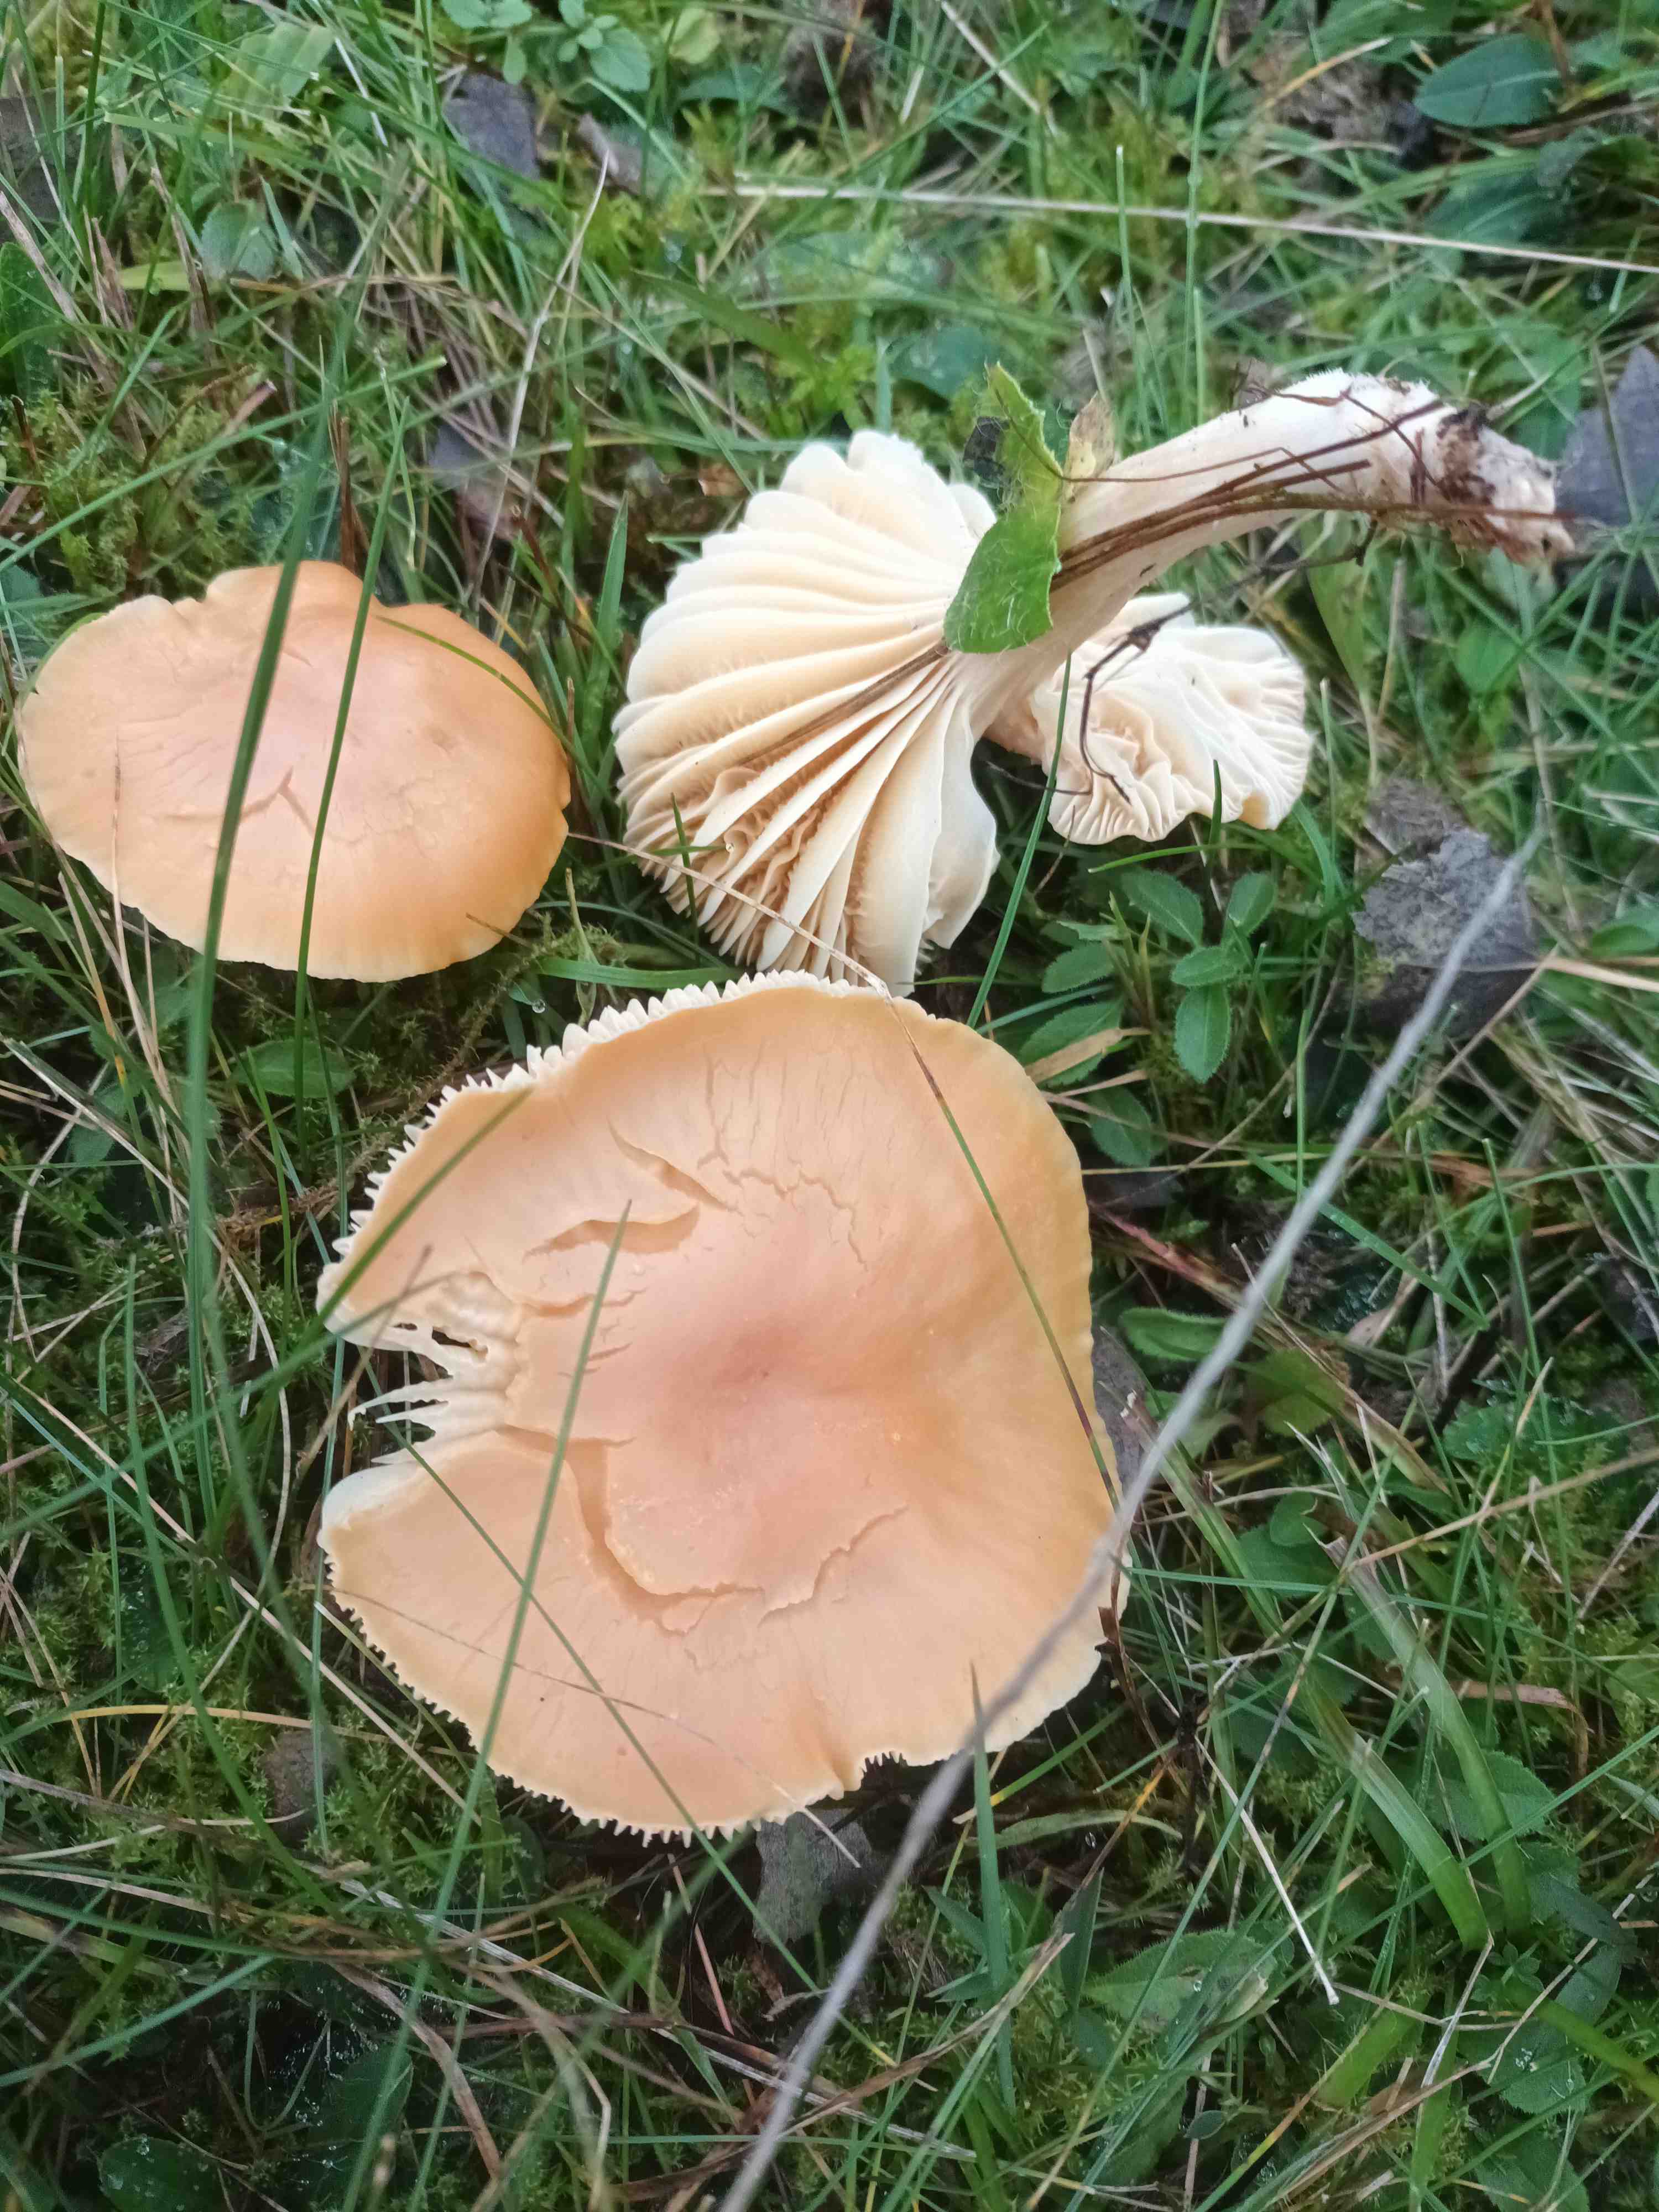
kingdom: Fungi
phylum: Basidiomycota
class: Agaricomycetes
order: Agaricales
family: Hygrophoraceae
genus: Cuphophyllus
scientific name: Cuphophyllus pratensis
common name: eng-vokshat
